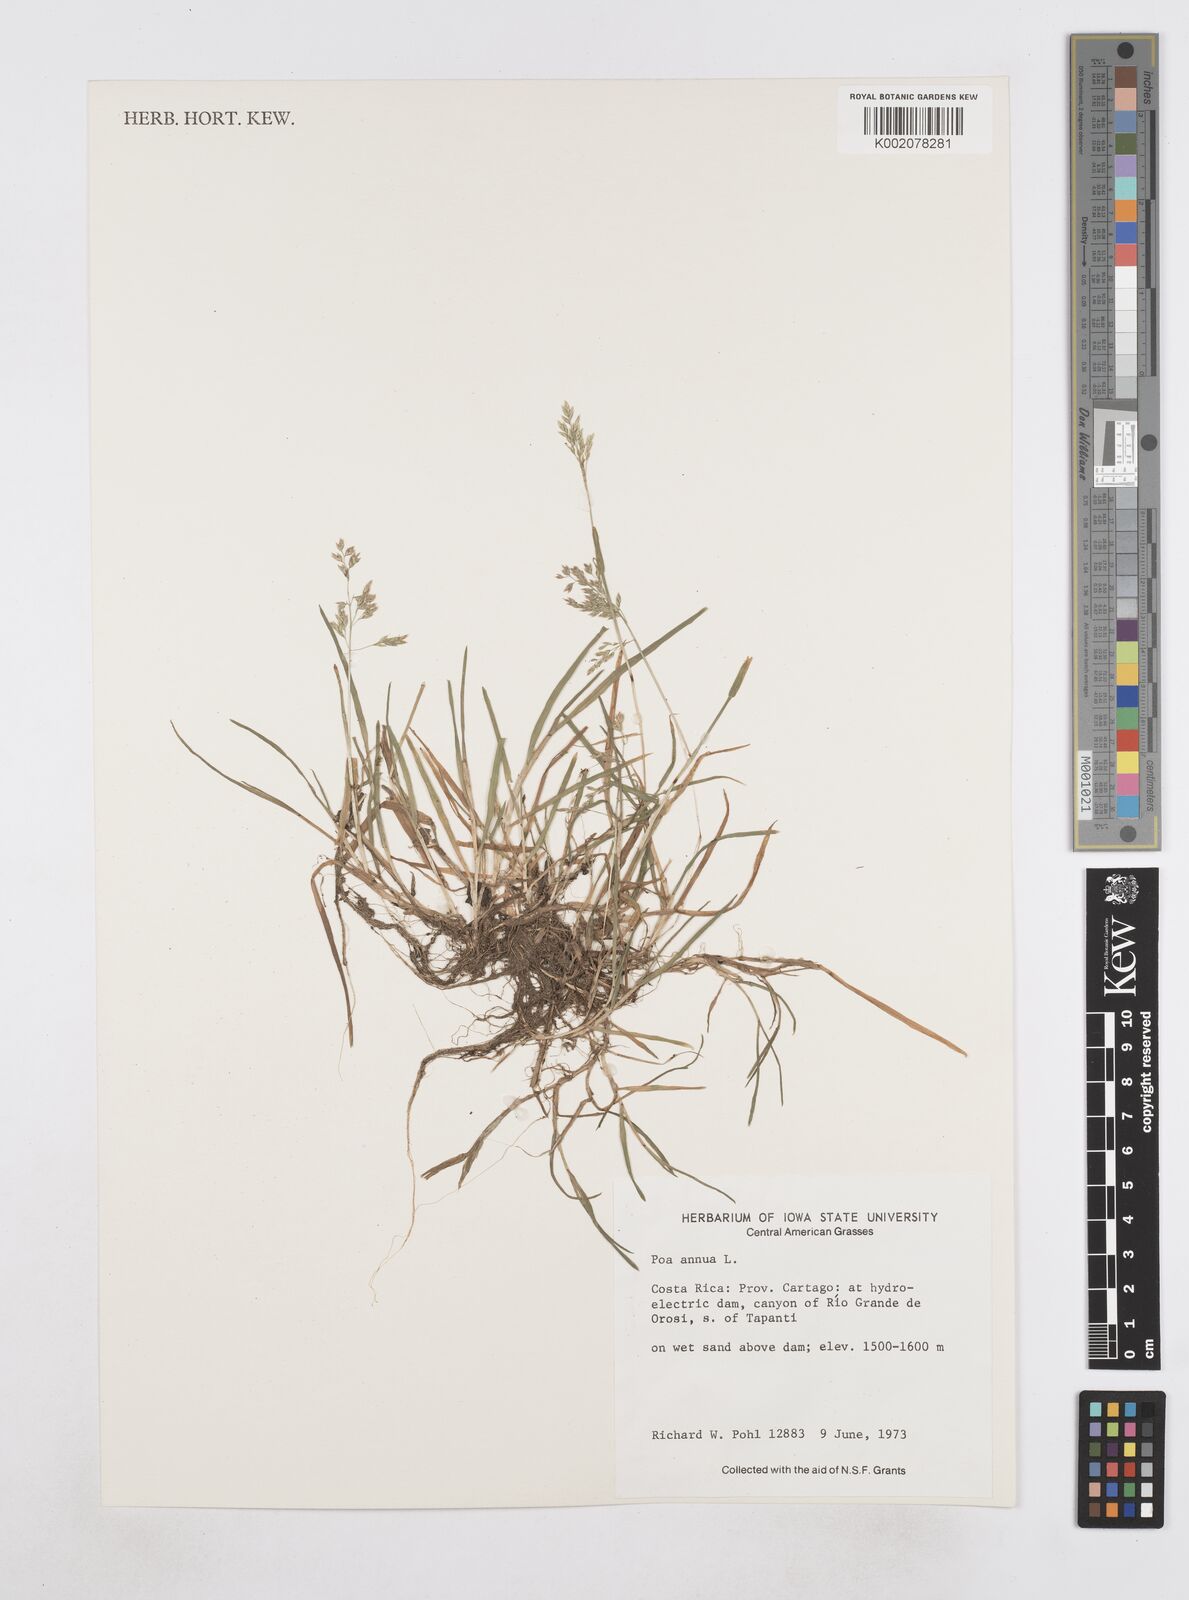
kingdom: Plantae
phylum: Tracheophyta
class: Liliopsida
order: Poales
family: Poaceae
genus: Poa
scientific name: Poa annua
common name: Annual bluegrass
